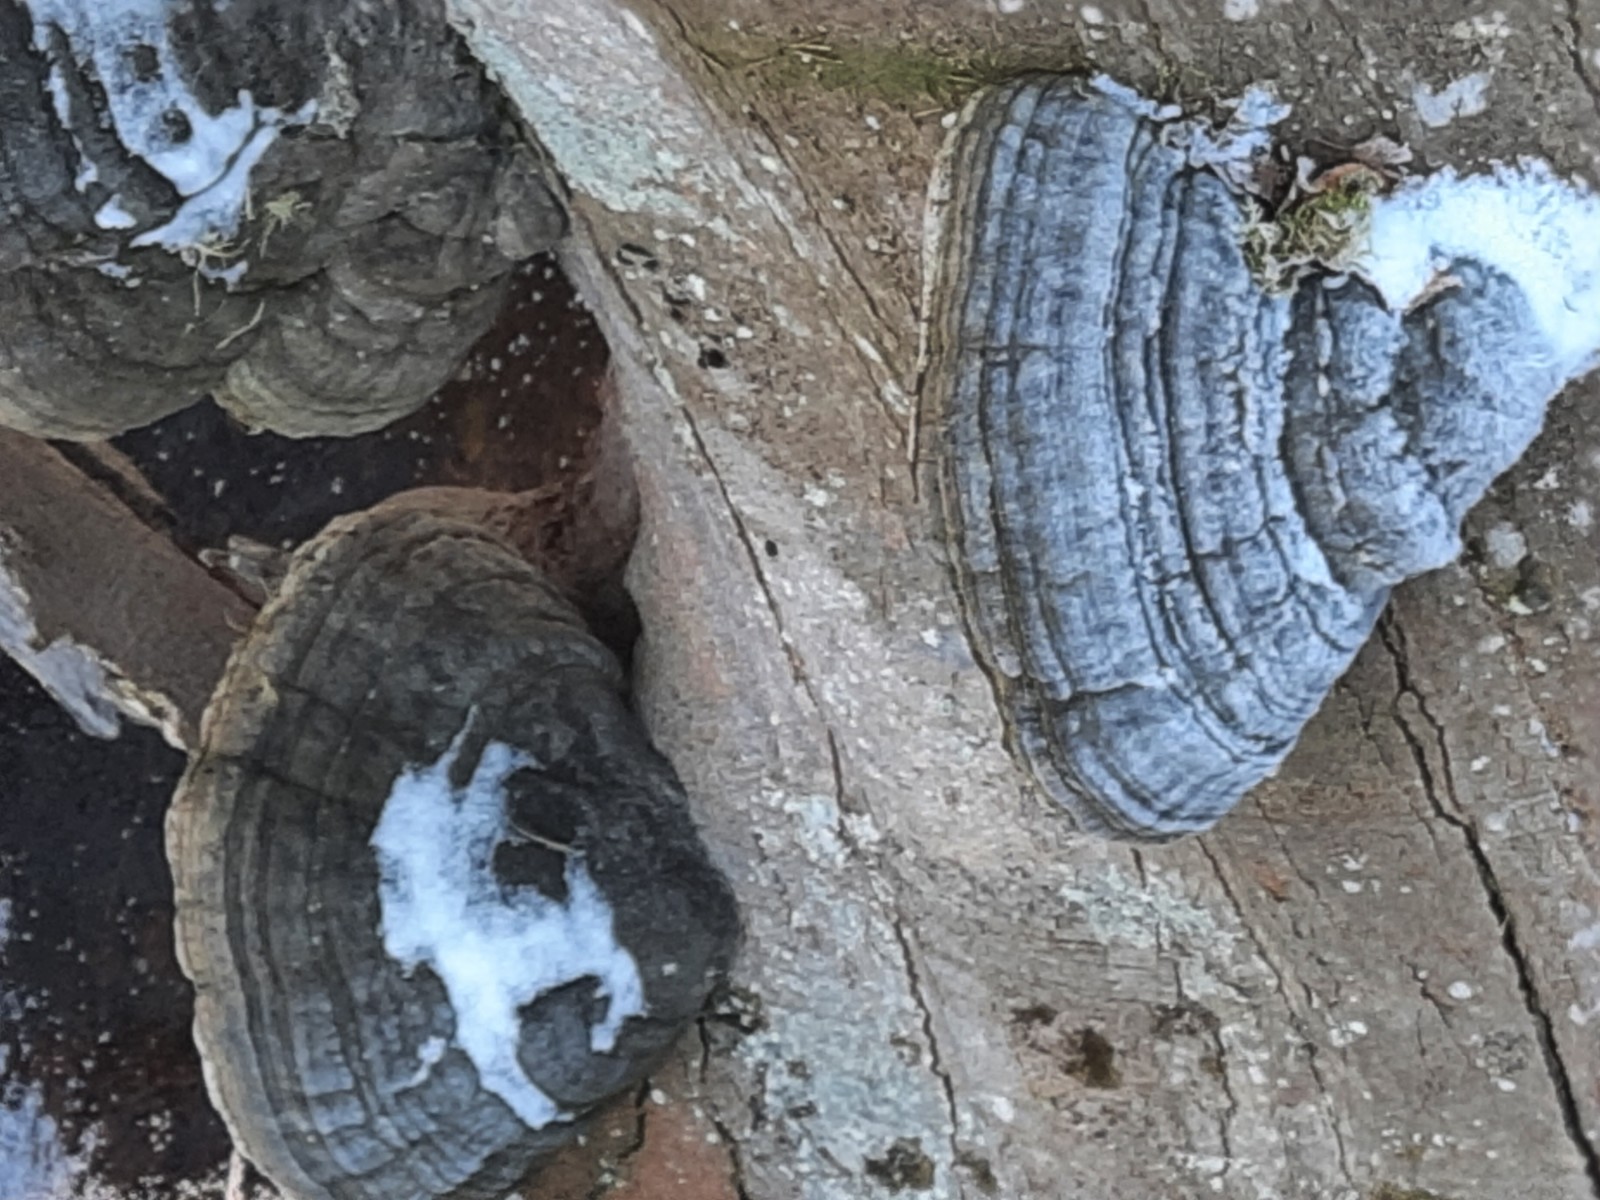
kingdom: Fungi
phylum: Basidiomycota
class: Agaricomycetes
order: Polyporales
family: Polyporaceae
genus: Fomes
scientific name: Fomes fomentarius
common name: tøndersvamp
